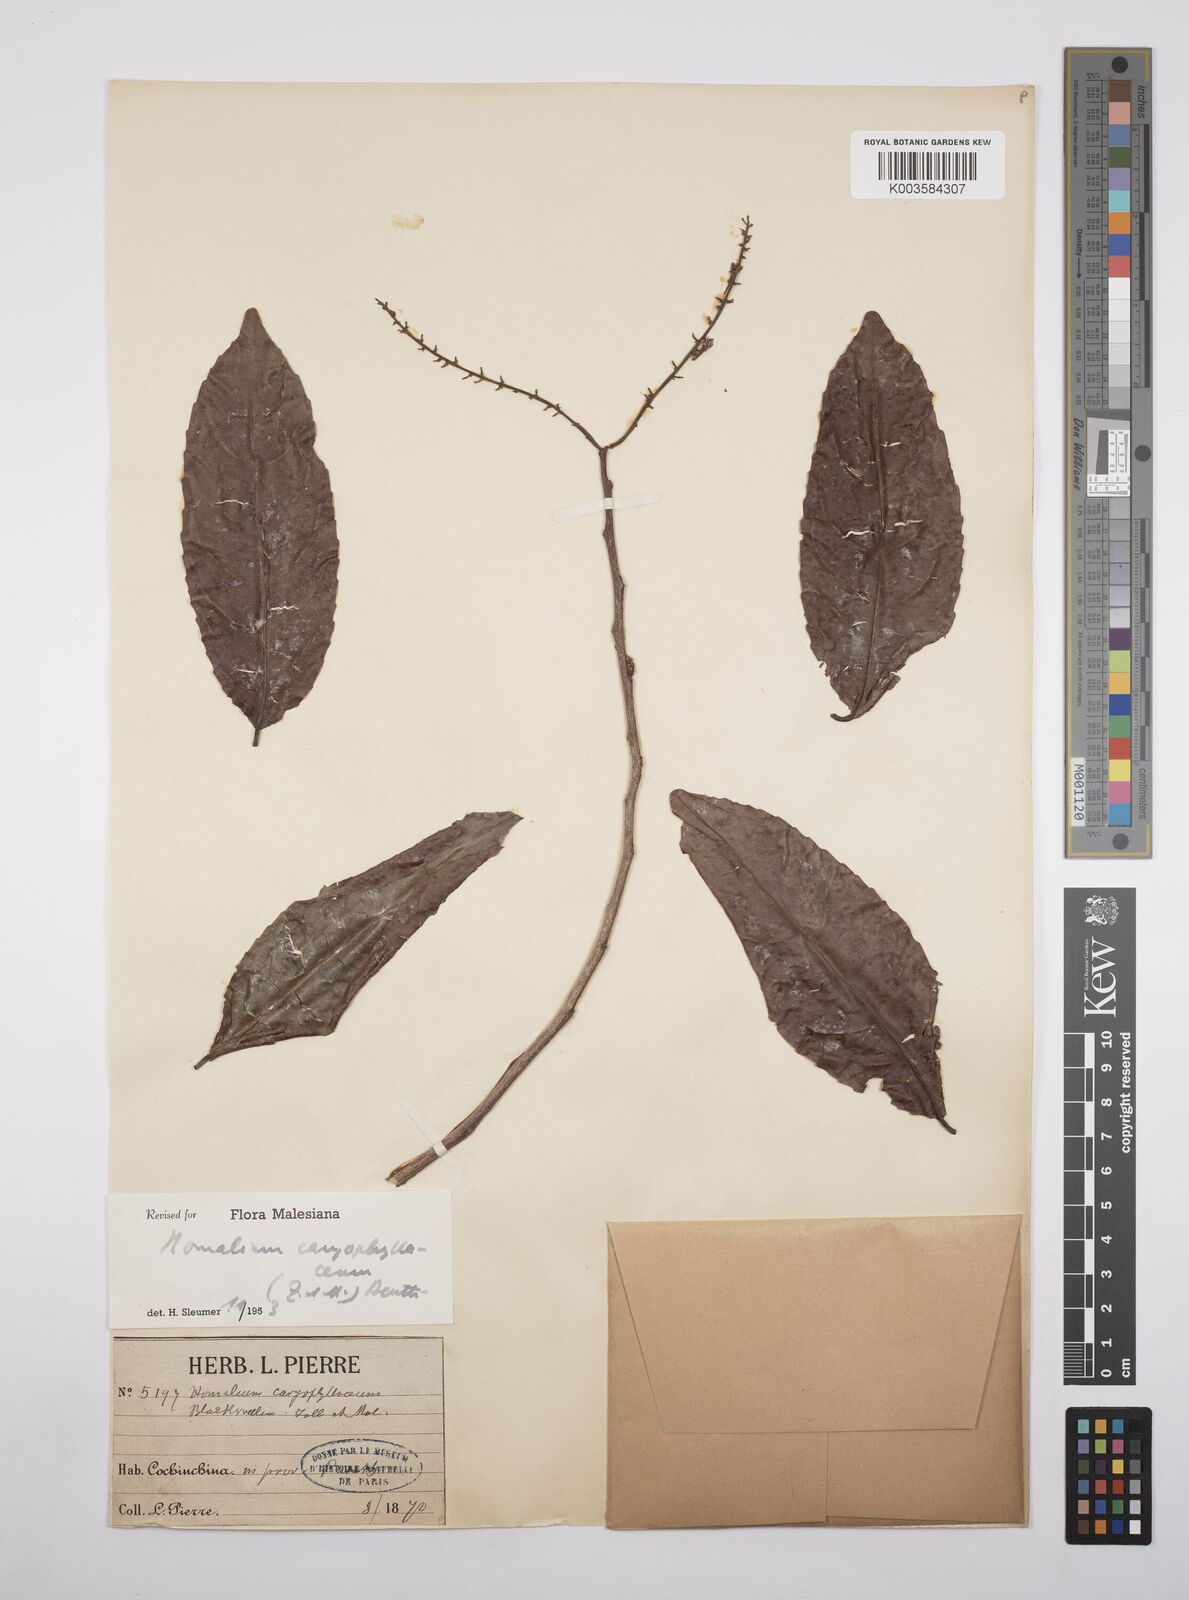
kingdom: Plantae
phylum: Tracheophyta
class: Magnoliopsida
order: Malpighiales
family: Salicaceae
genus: Homalium
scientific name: Homalium caryophyllaceum
